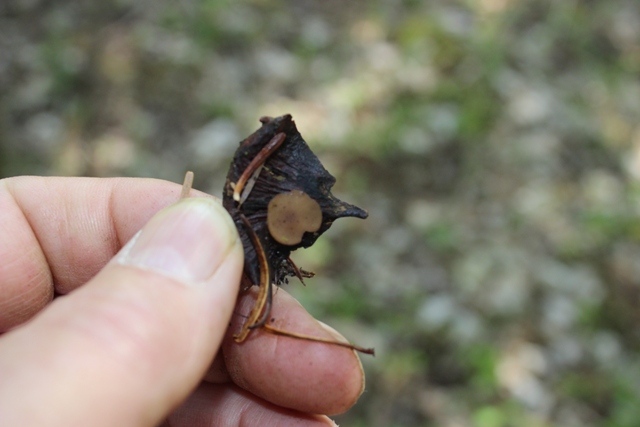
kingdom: Fungi
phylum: Ascomycota
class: Leotiomycetes
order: Helotiales
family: Sclerotiniaceae
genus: Ciboria
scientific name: Ciboria rufofusca
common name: kogleskæl-knoldskive
